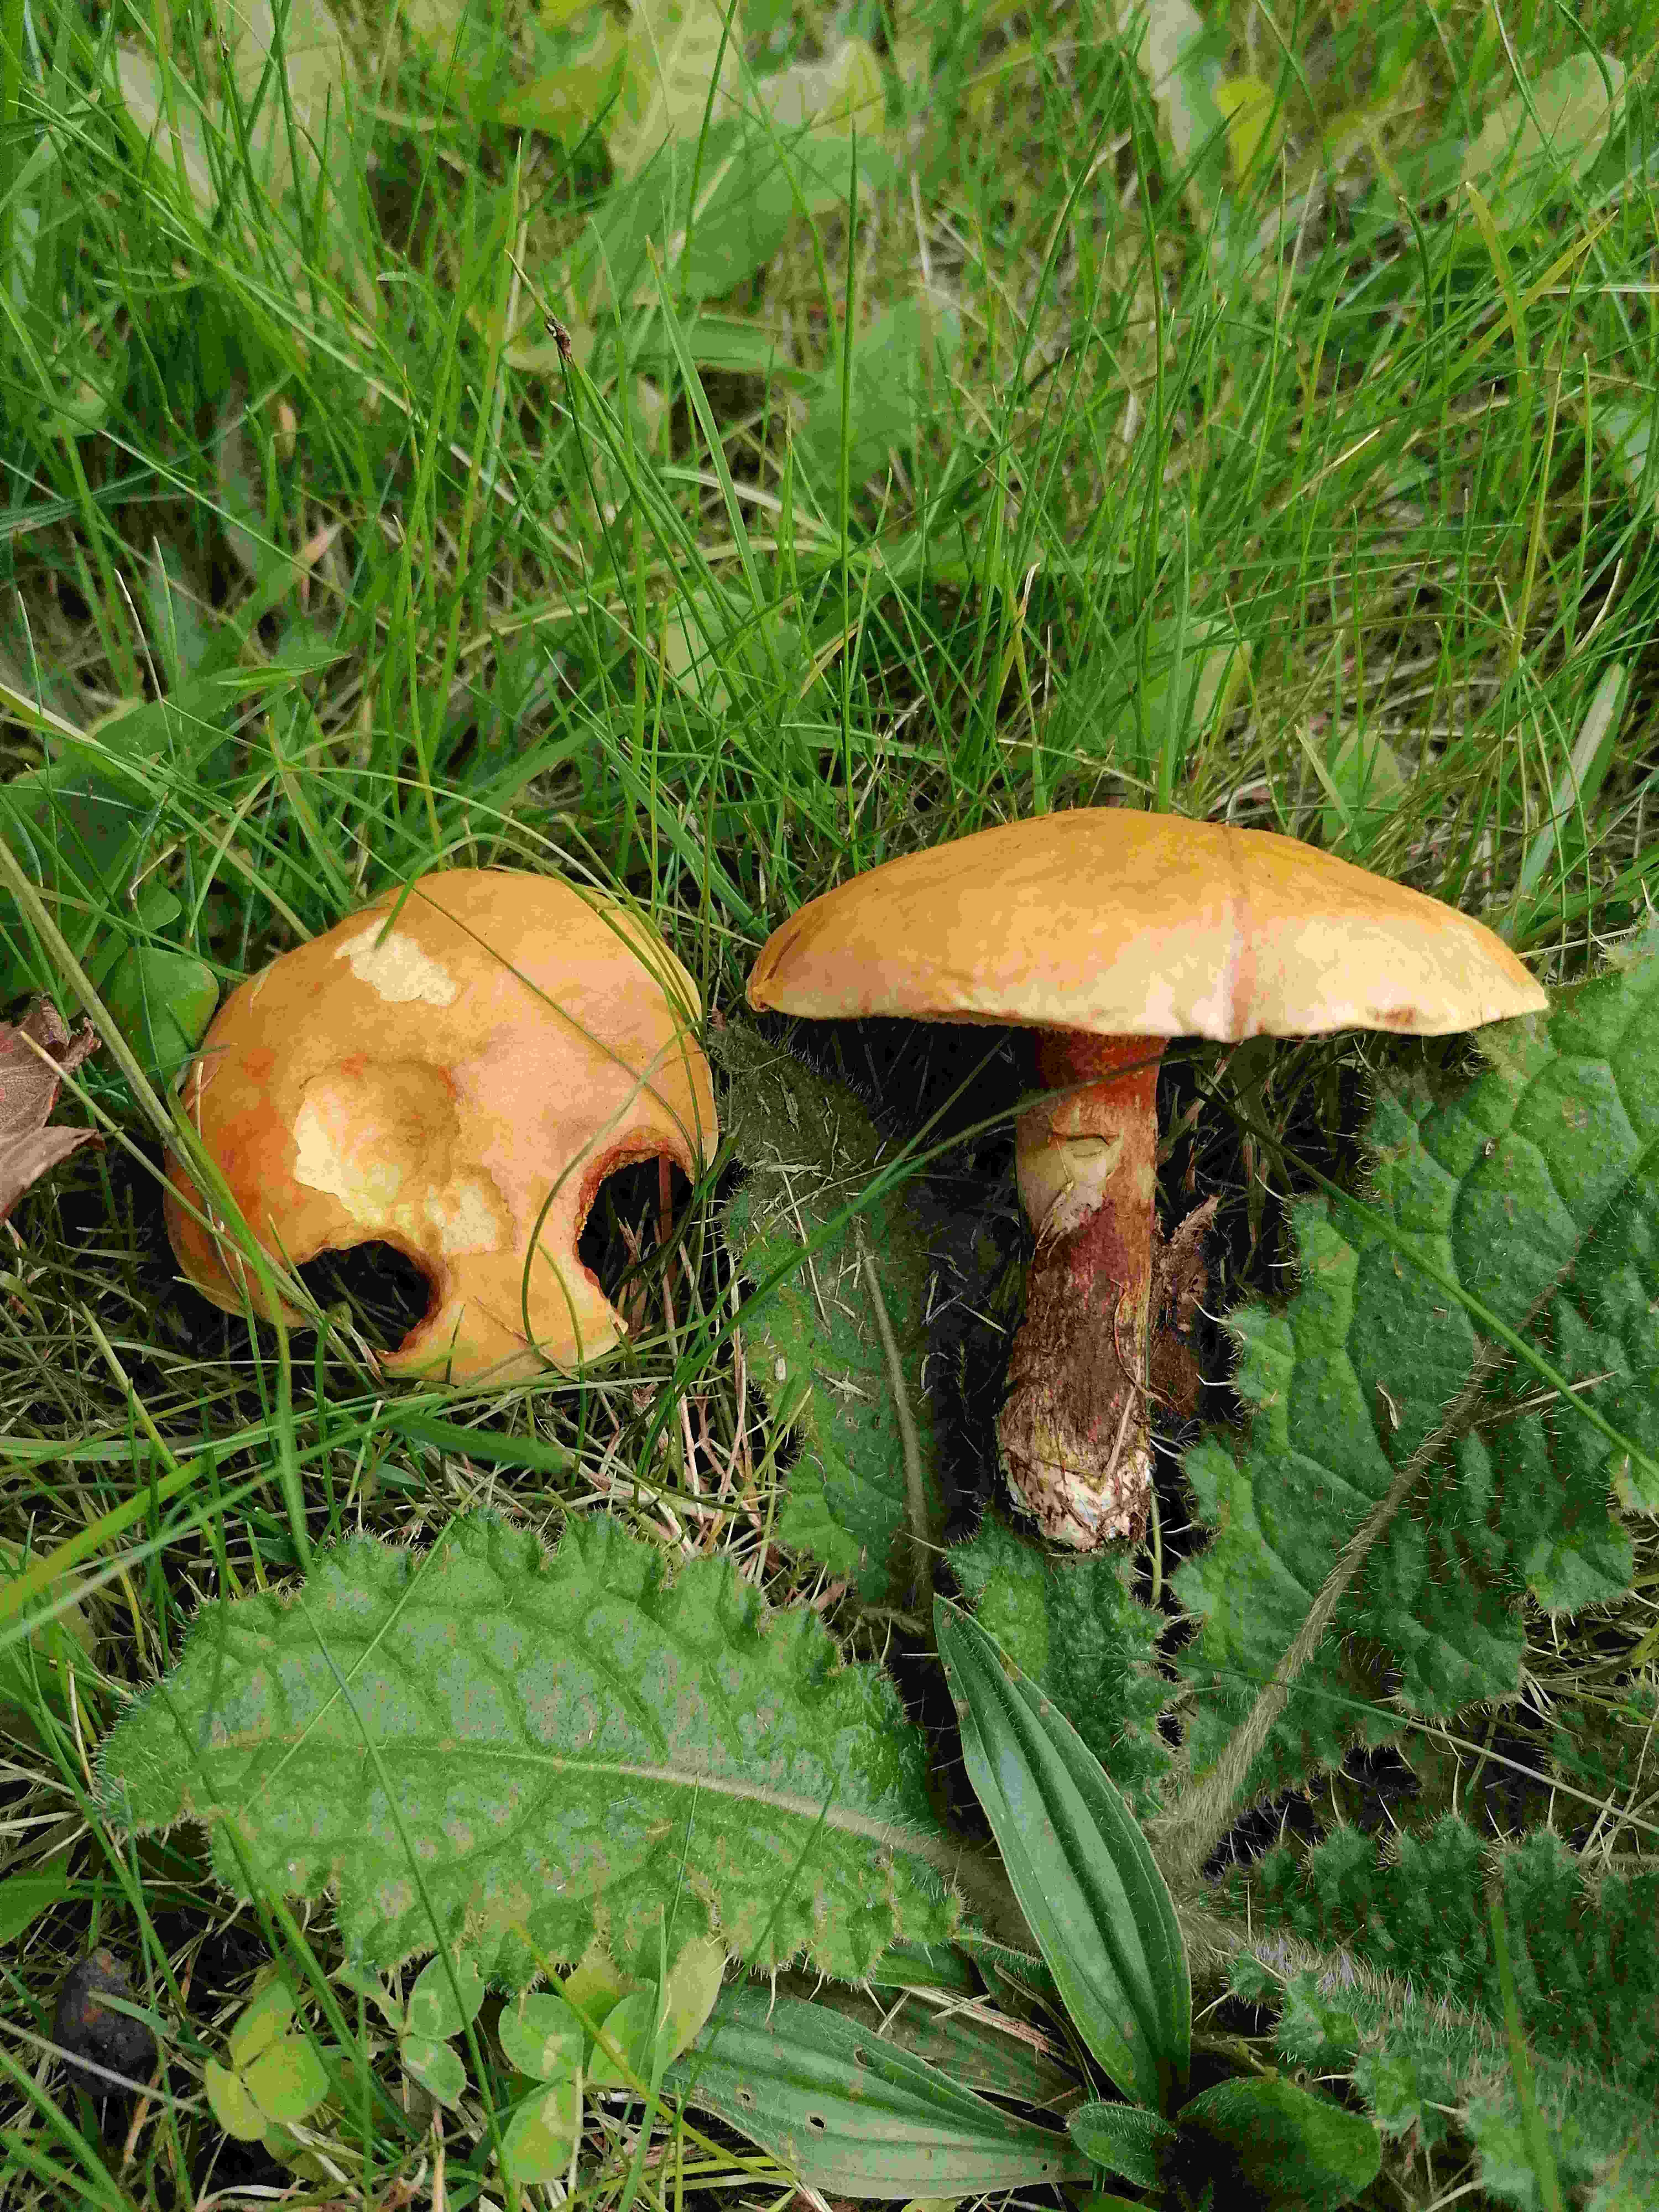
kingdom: Fungi
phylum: Basidiomycota
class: Agaricomycetes
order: Boletales
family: Suillaceae
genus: Suillus
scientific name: Suillus grevillei
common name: lærke-slimrørhat
